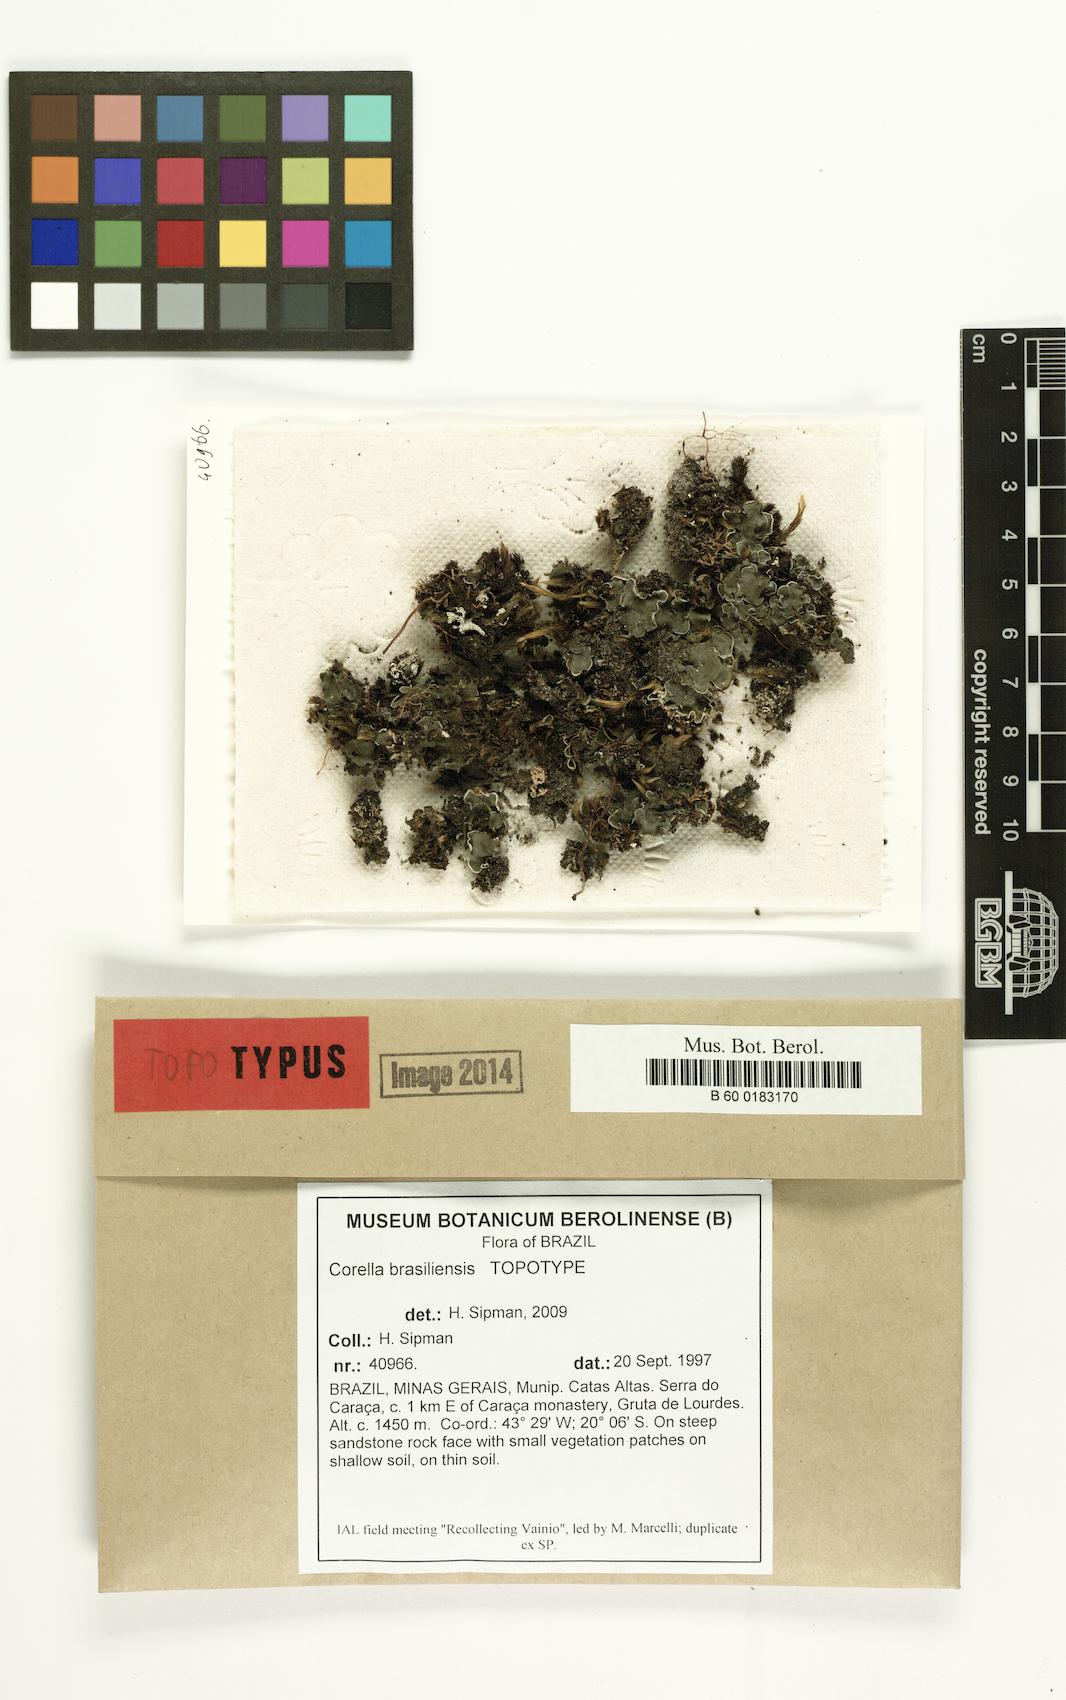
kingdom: Fungi
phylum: Basidiomycota
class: Agaricomycetes
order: Agaricales
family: Hygrophoraceae
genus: Cora
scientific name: Cora glabrata
